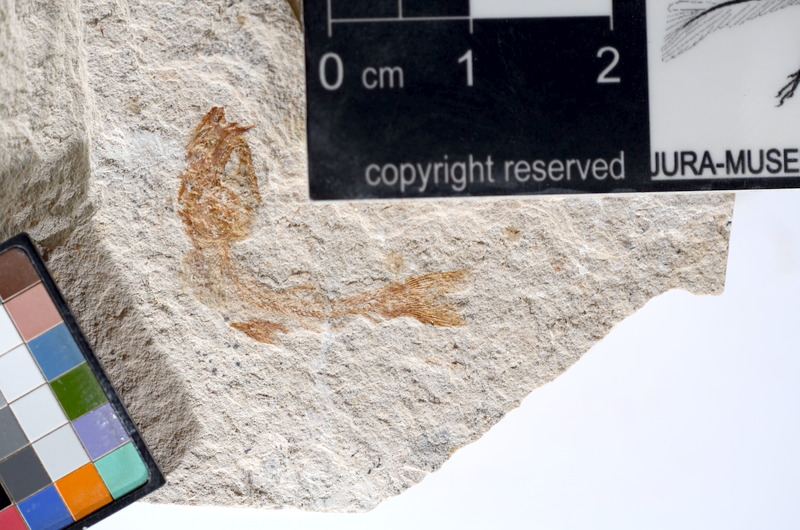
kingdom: Animalia
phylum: Chordata
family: Ascalaboidae
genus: Tharsis
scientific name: Tharsis dubius
